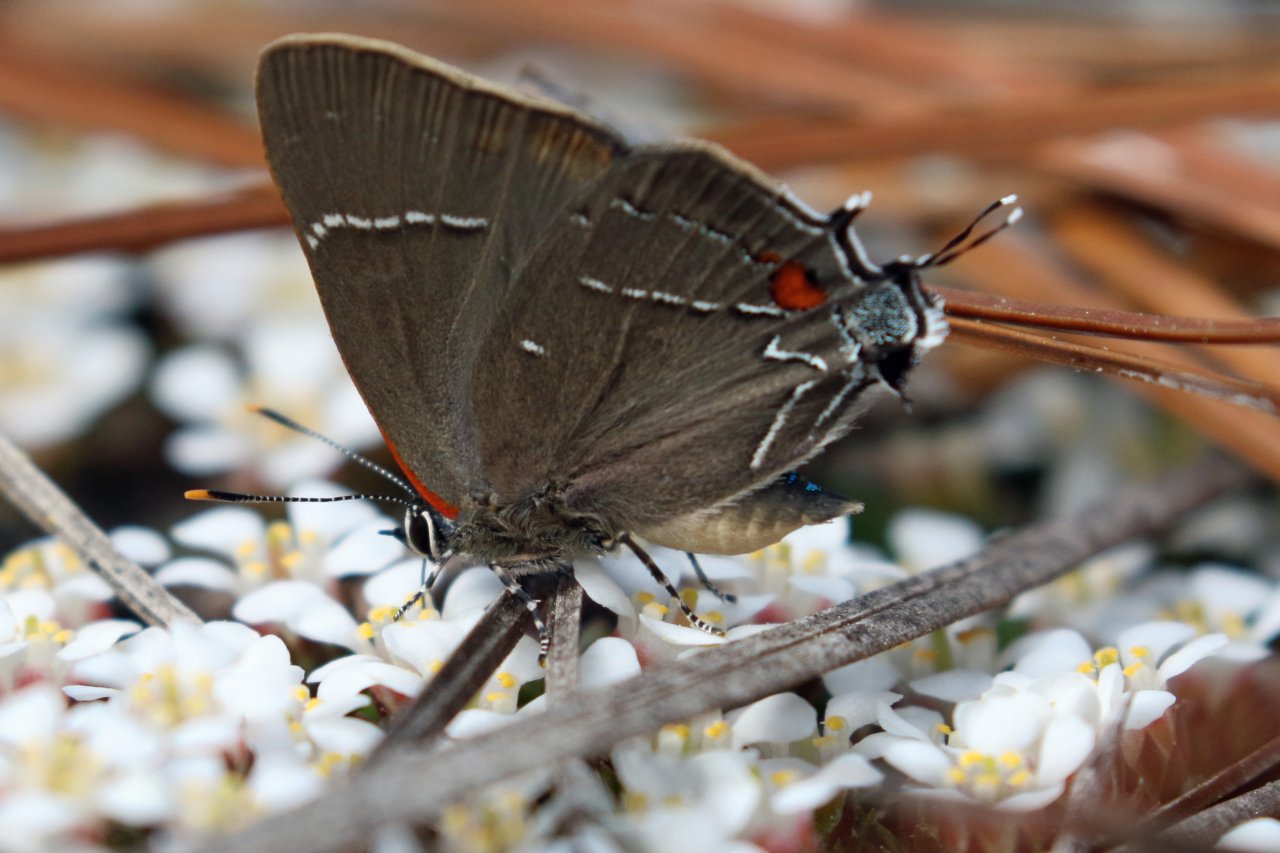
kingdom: Animalia
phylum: Arthropoda
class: Insecta
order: Lepidoptera
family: Lycaenidae
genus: Parrhasius
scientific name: Parrhasius m-album
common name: White-m Hairstreak
